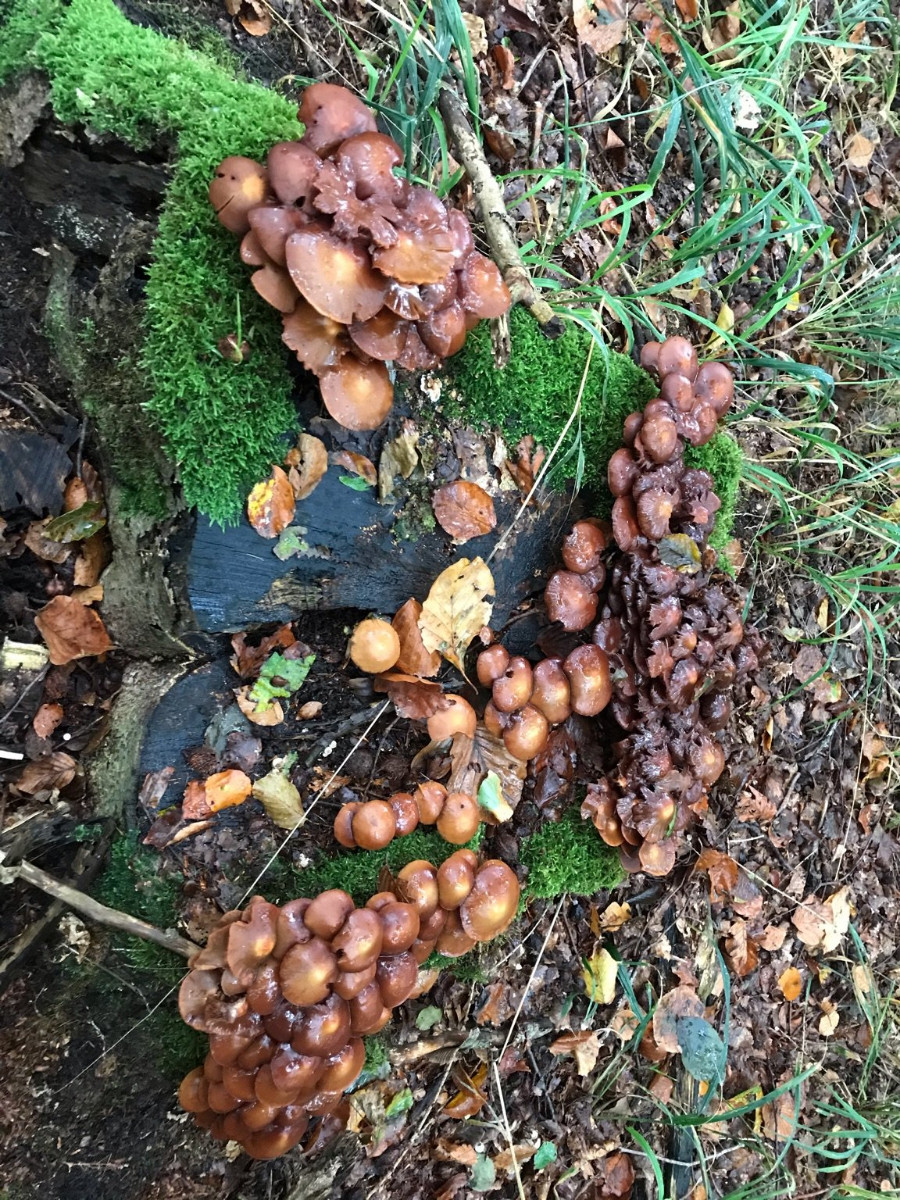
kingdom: Fungi
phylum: Basidiomycota
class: Agaricomycetes
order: Agaricales
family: Strophariaceae
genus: Kuehneromyces
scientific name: Kuehneromyces mutabilis
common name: foranderlig skælhat
